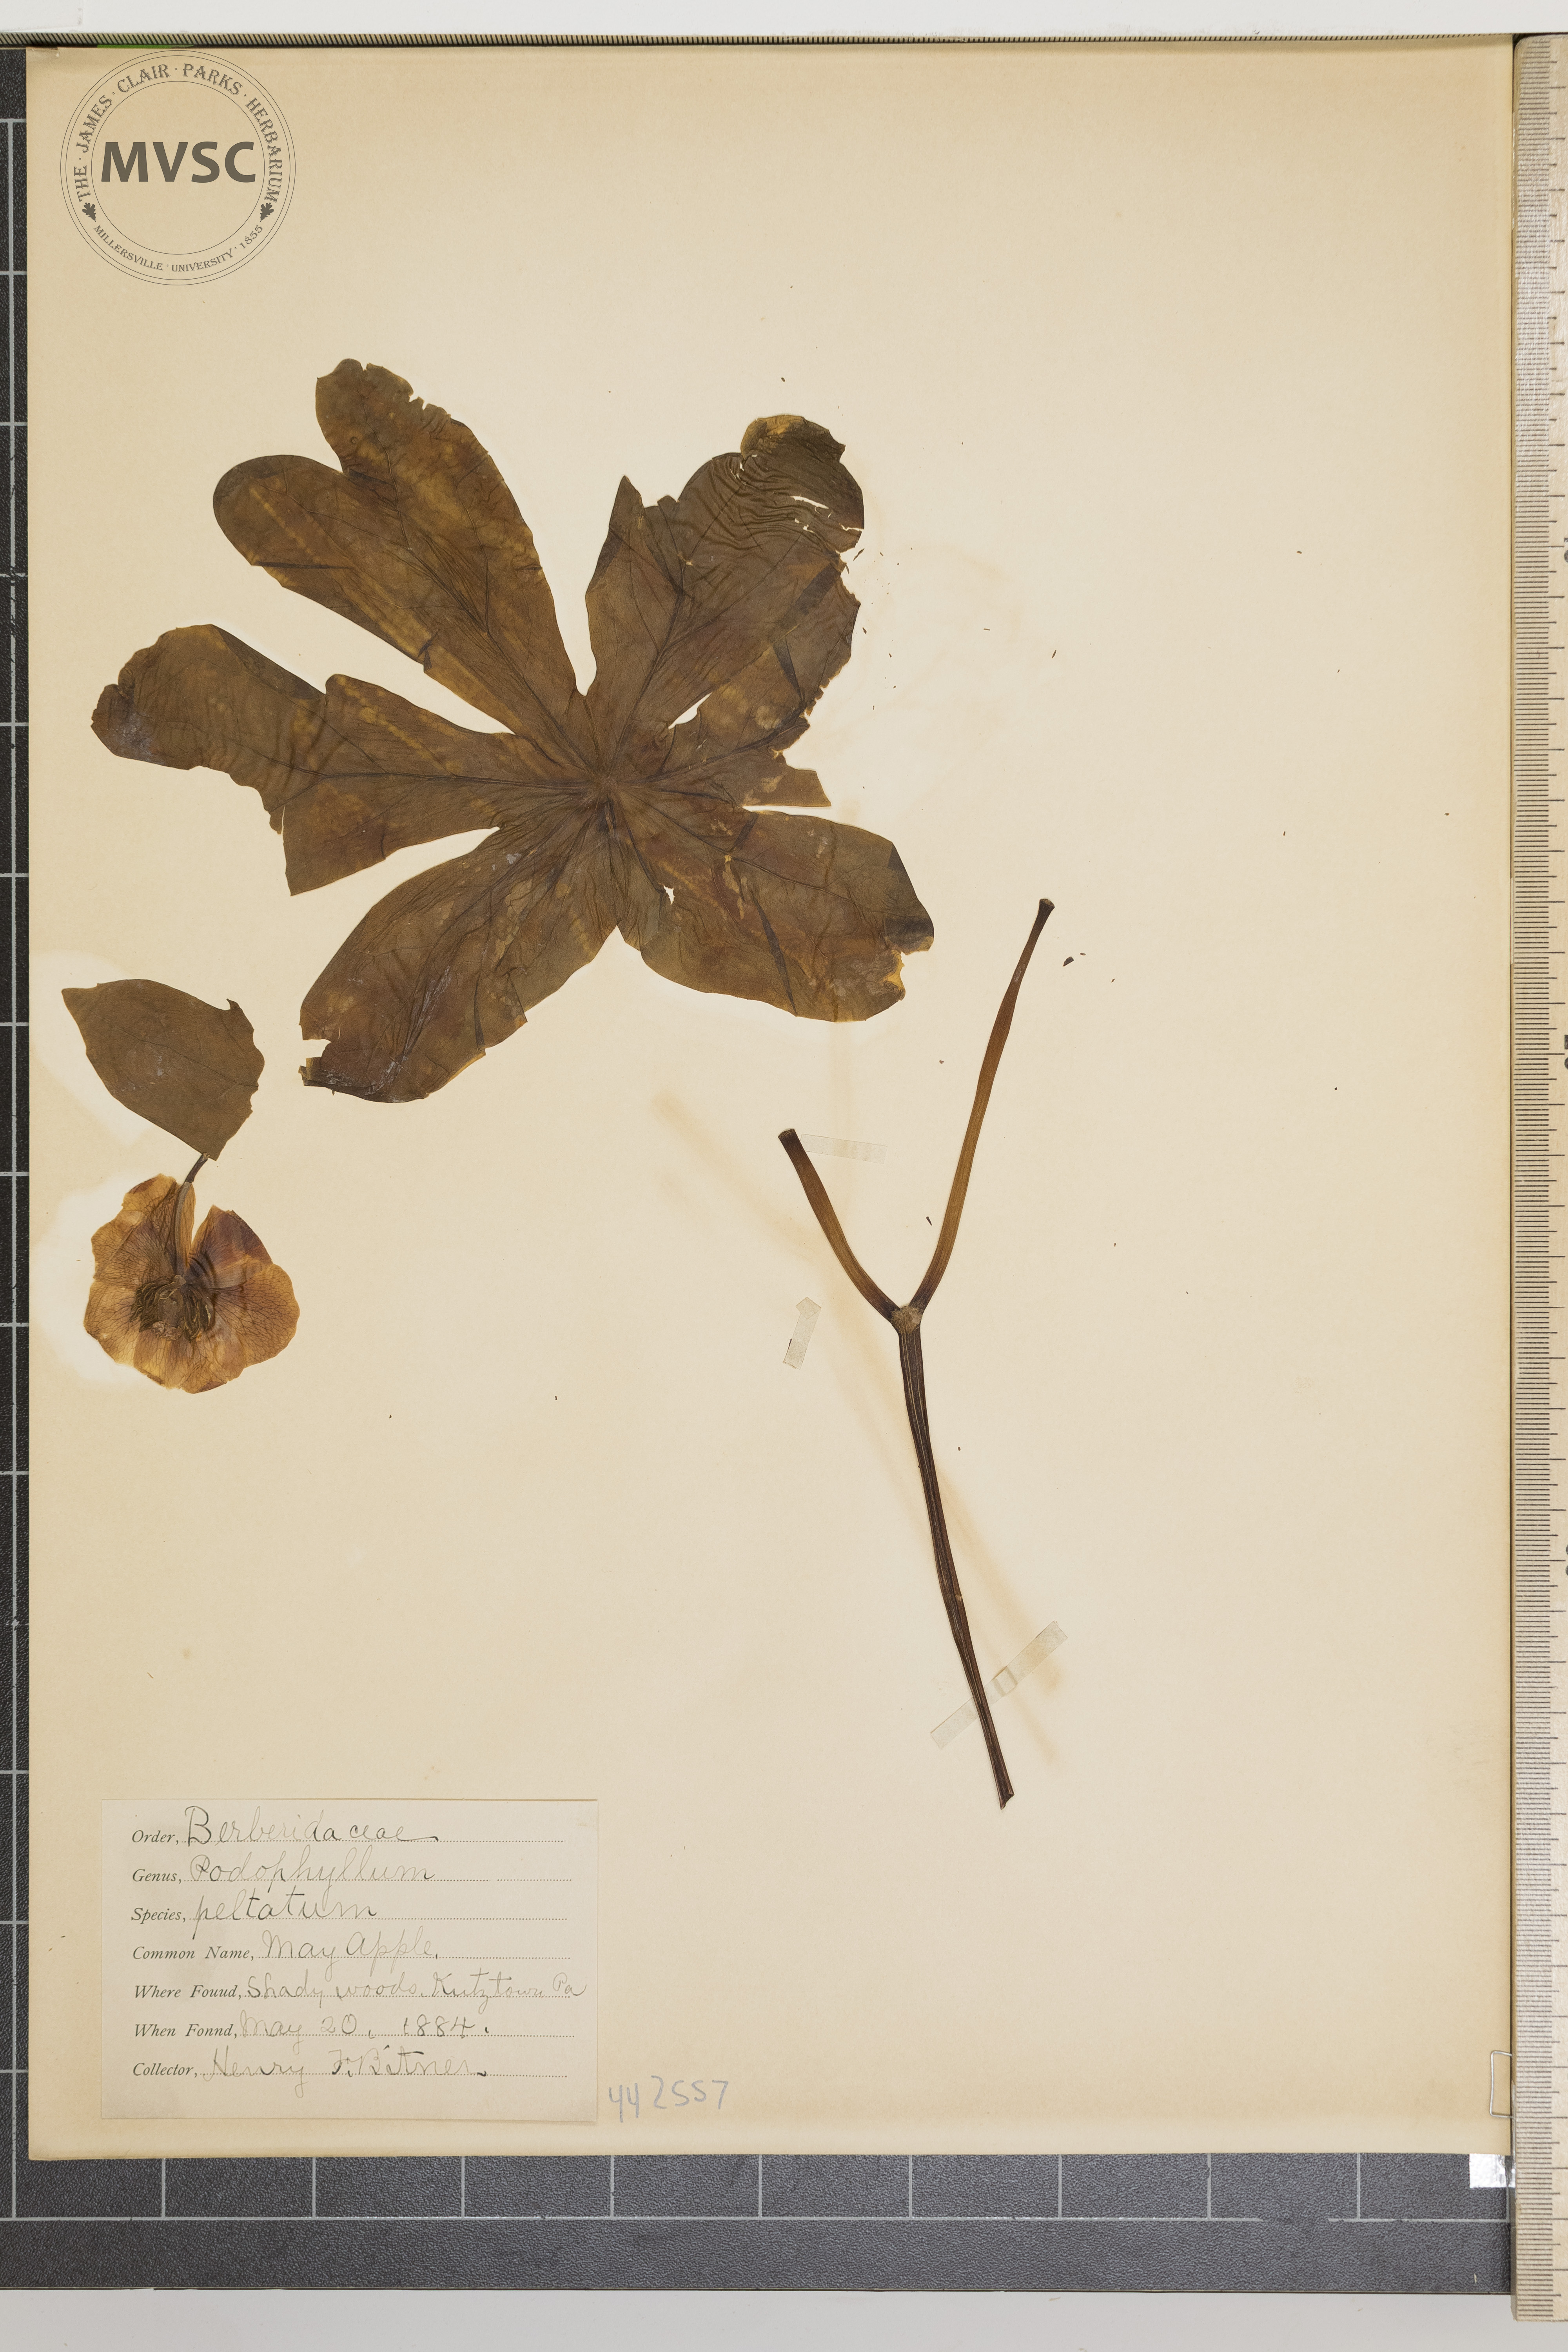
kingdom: Plantae
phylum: Tracheophyta
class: Magnoliopsida
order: Ranunculales
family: Berberidaceae
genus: Podophyllum
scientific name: Podophyllum peltatum
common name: Mayapple
